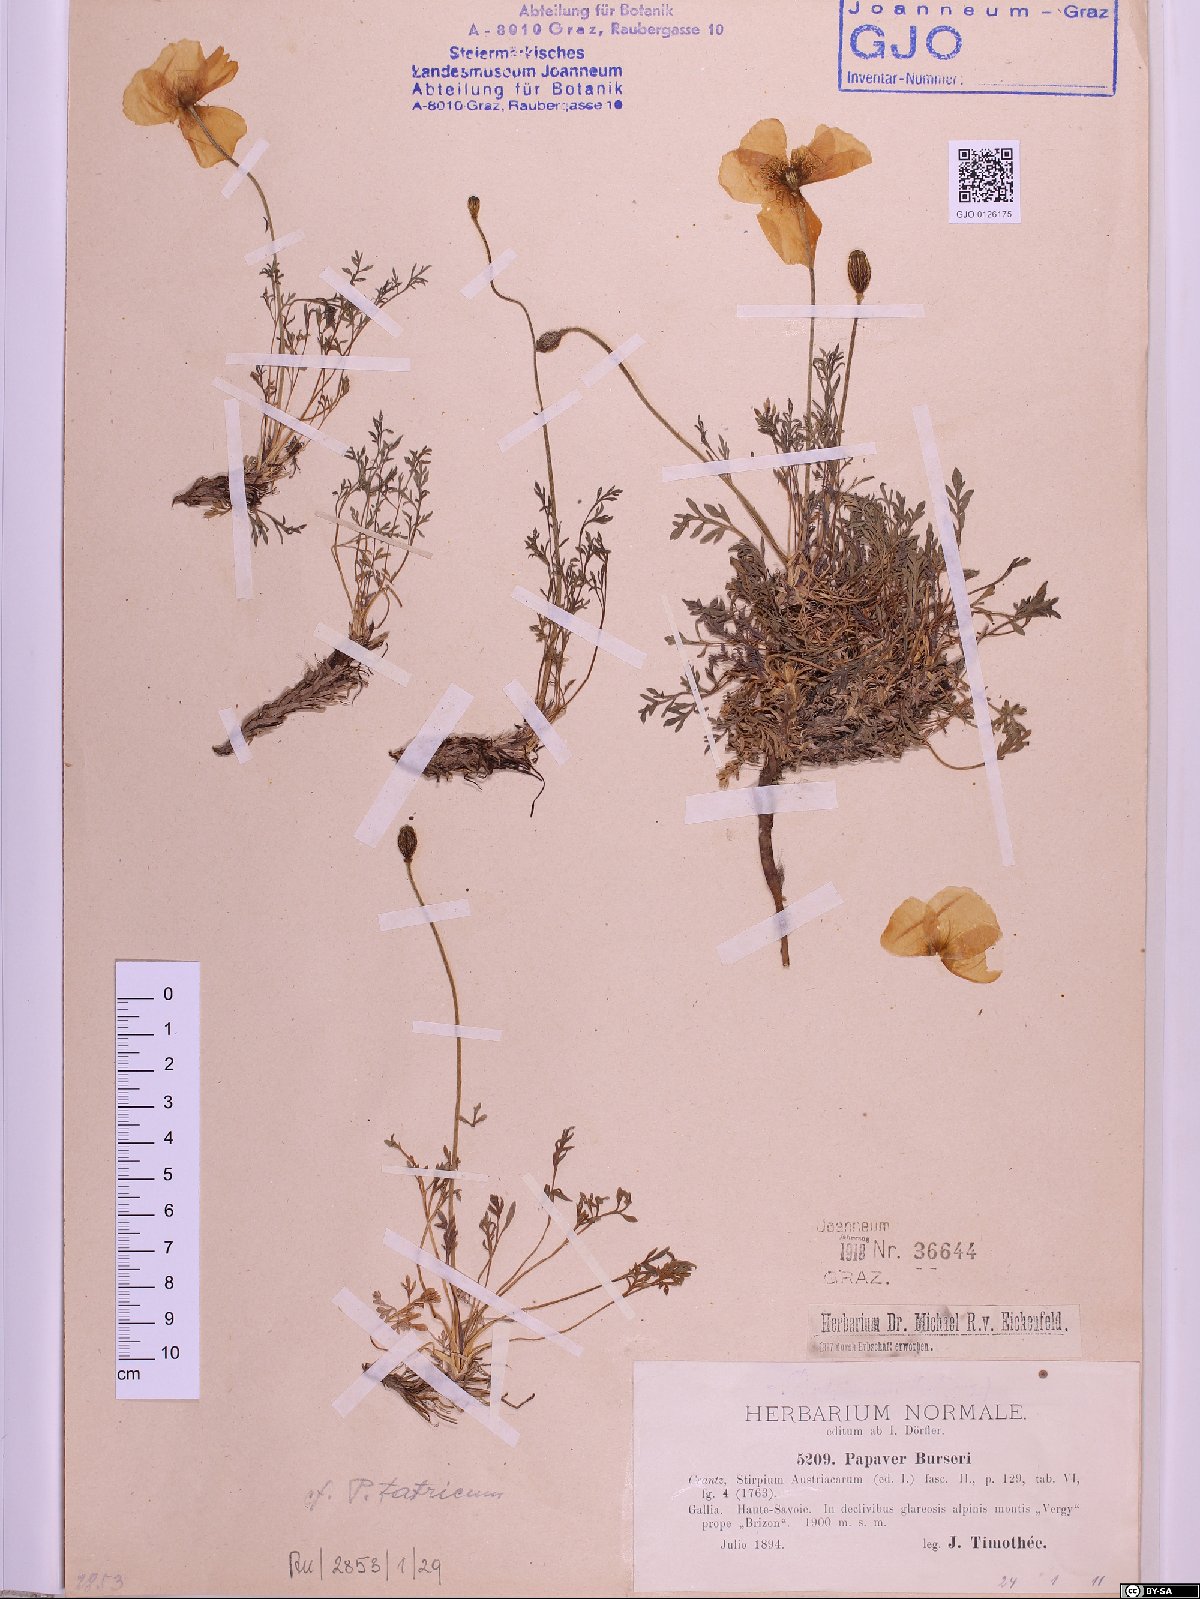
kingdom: Plantae
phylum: Tracheophyta
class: Magnoliopsida
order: Ranunculales
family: Papaveraceae
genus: Papaver
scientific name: Papaver alpinum
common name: Austrian poppy
